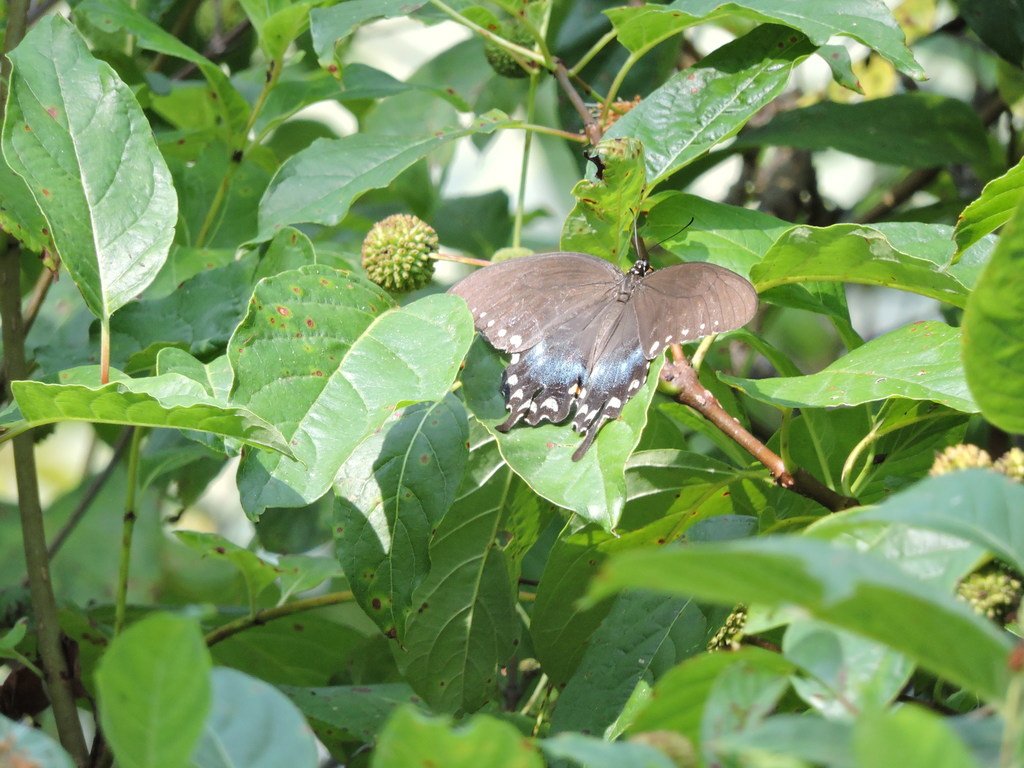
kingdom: Animalia
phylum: Arthropoda
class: Insecta
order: Lepidoptera
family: Papilionidae
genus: Pterourus
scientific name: Pterourus troilus
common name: Spicebush Swallowtail
